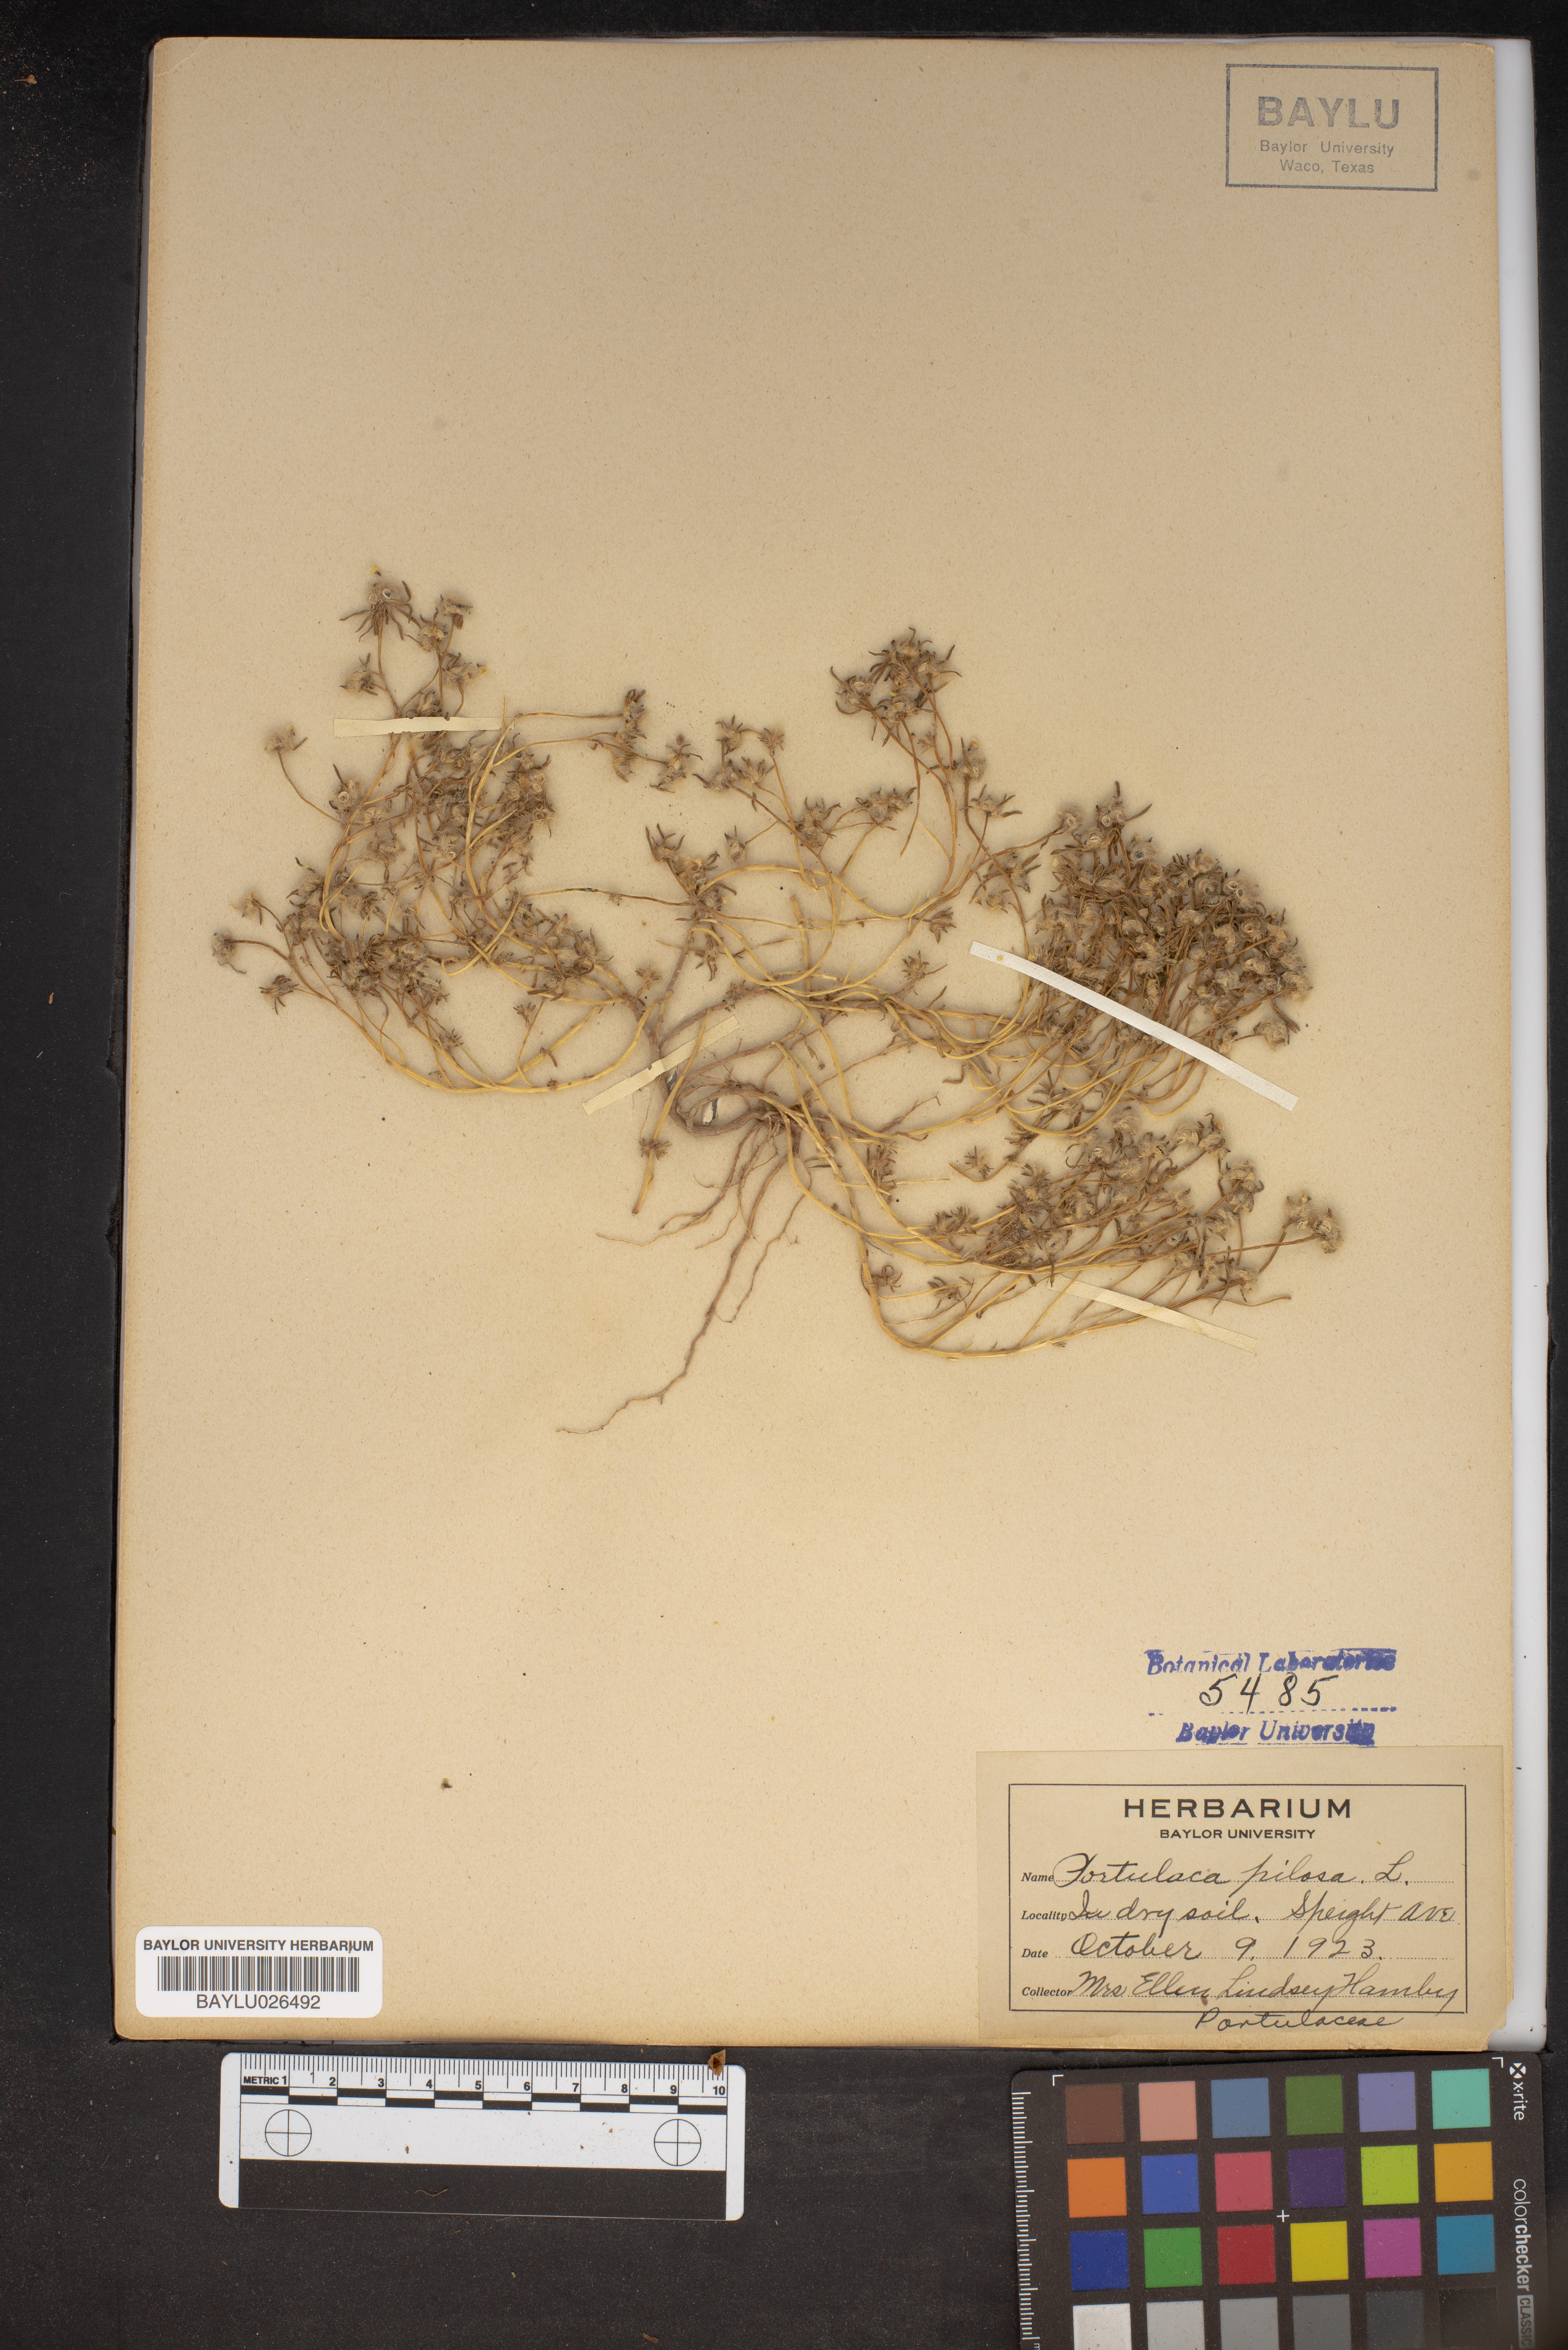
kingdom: Plantae
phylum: Tracheophyta
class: Magnoliopsida
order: Caryophyllales
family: Portulacaceae
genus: Portulaca
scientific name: Portulaca pilosa
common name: Kiss me quick
